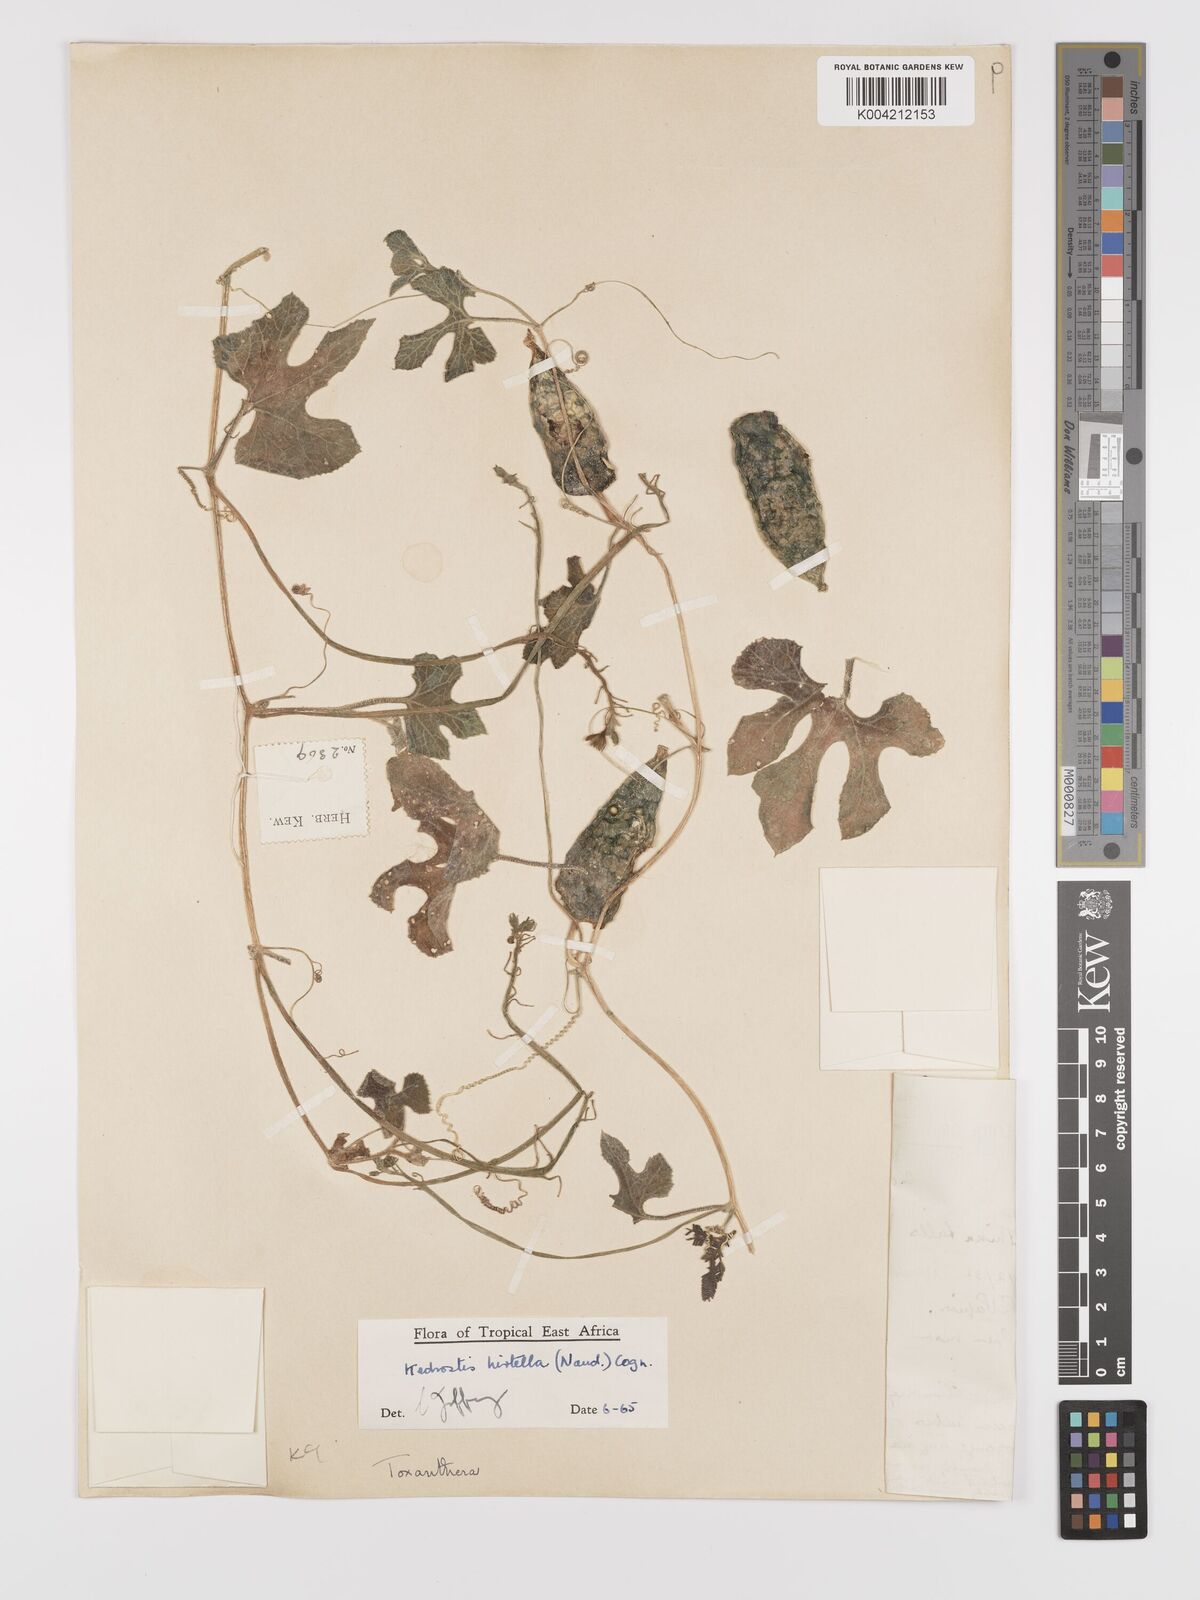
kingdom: Plantae
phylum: Tracheophyta
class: Magnoliopsida
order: Cucurbitales
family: Cucurbitaceae
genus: Kedrostis
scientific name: Kedrostis leloja
